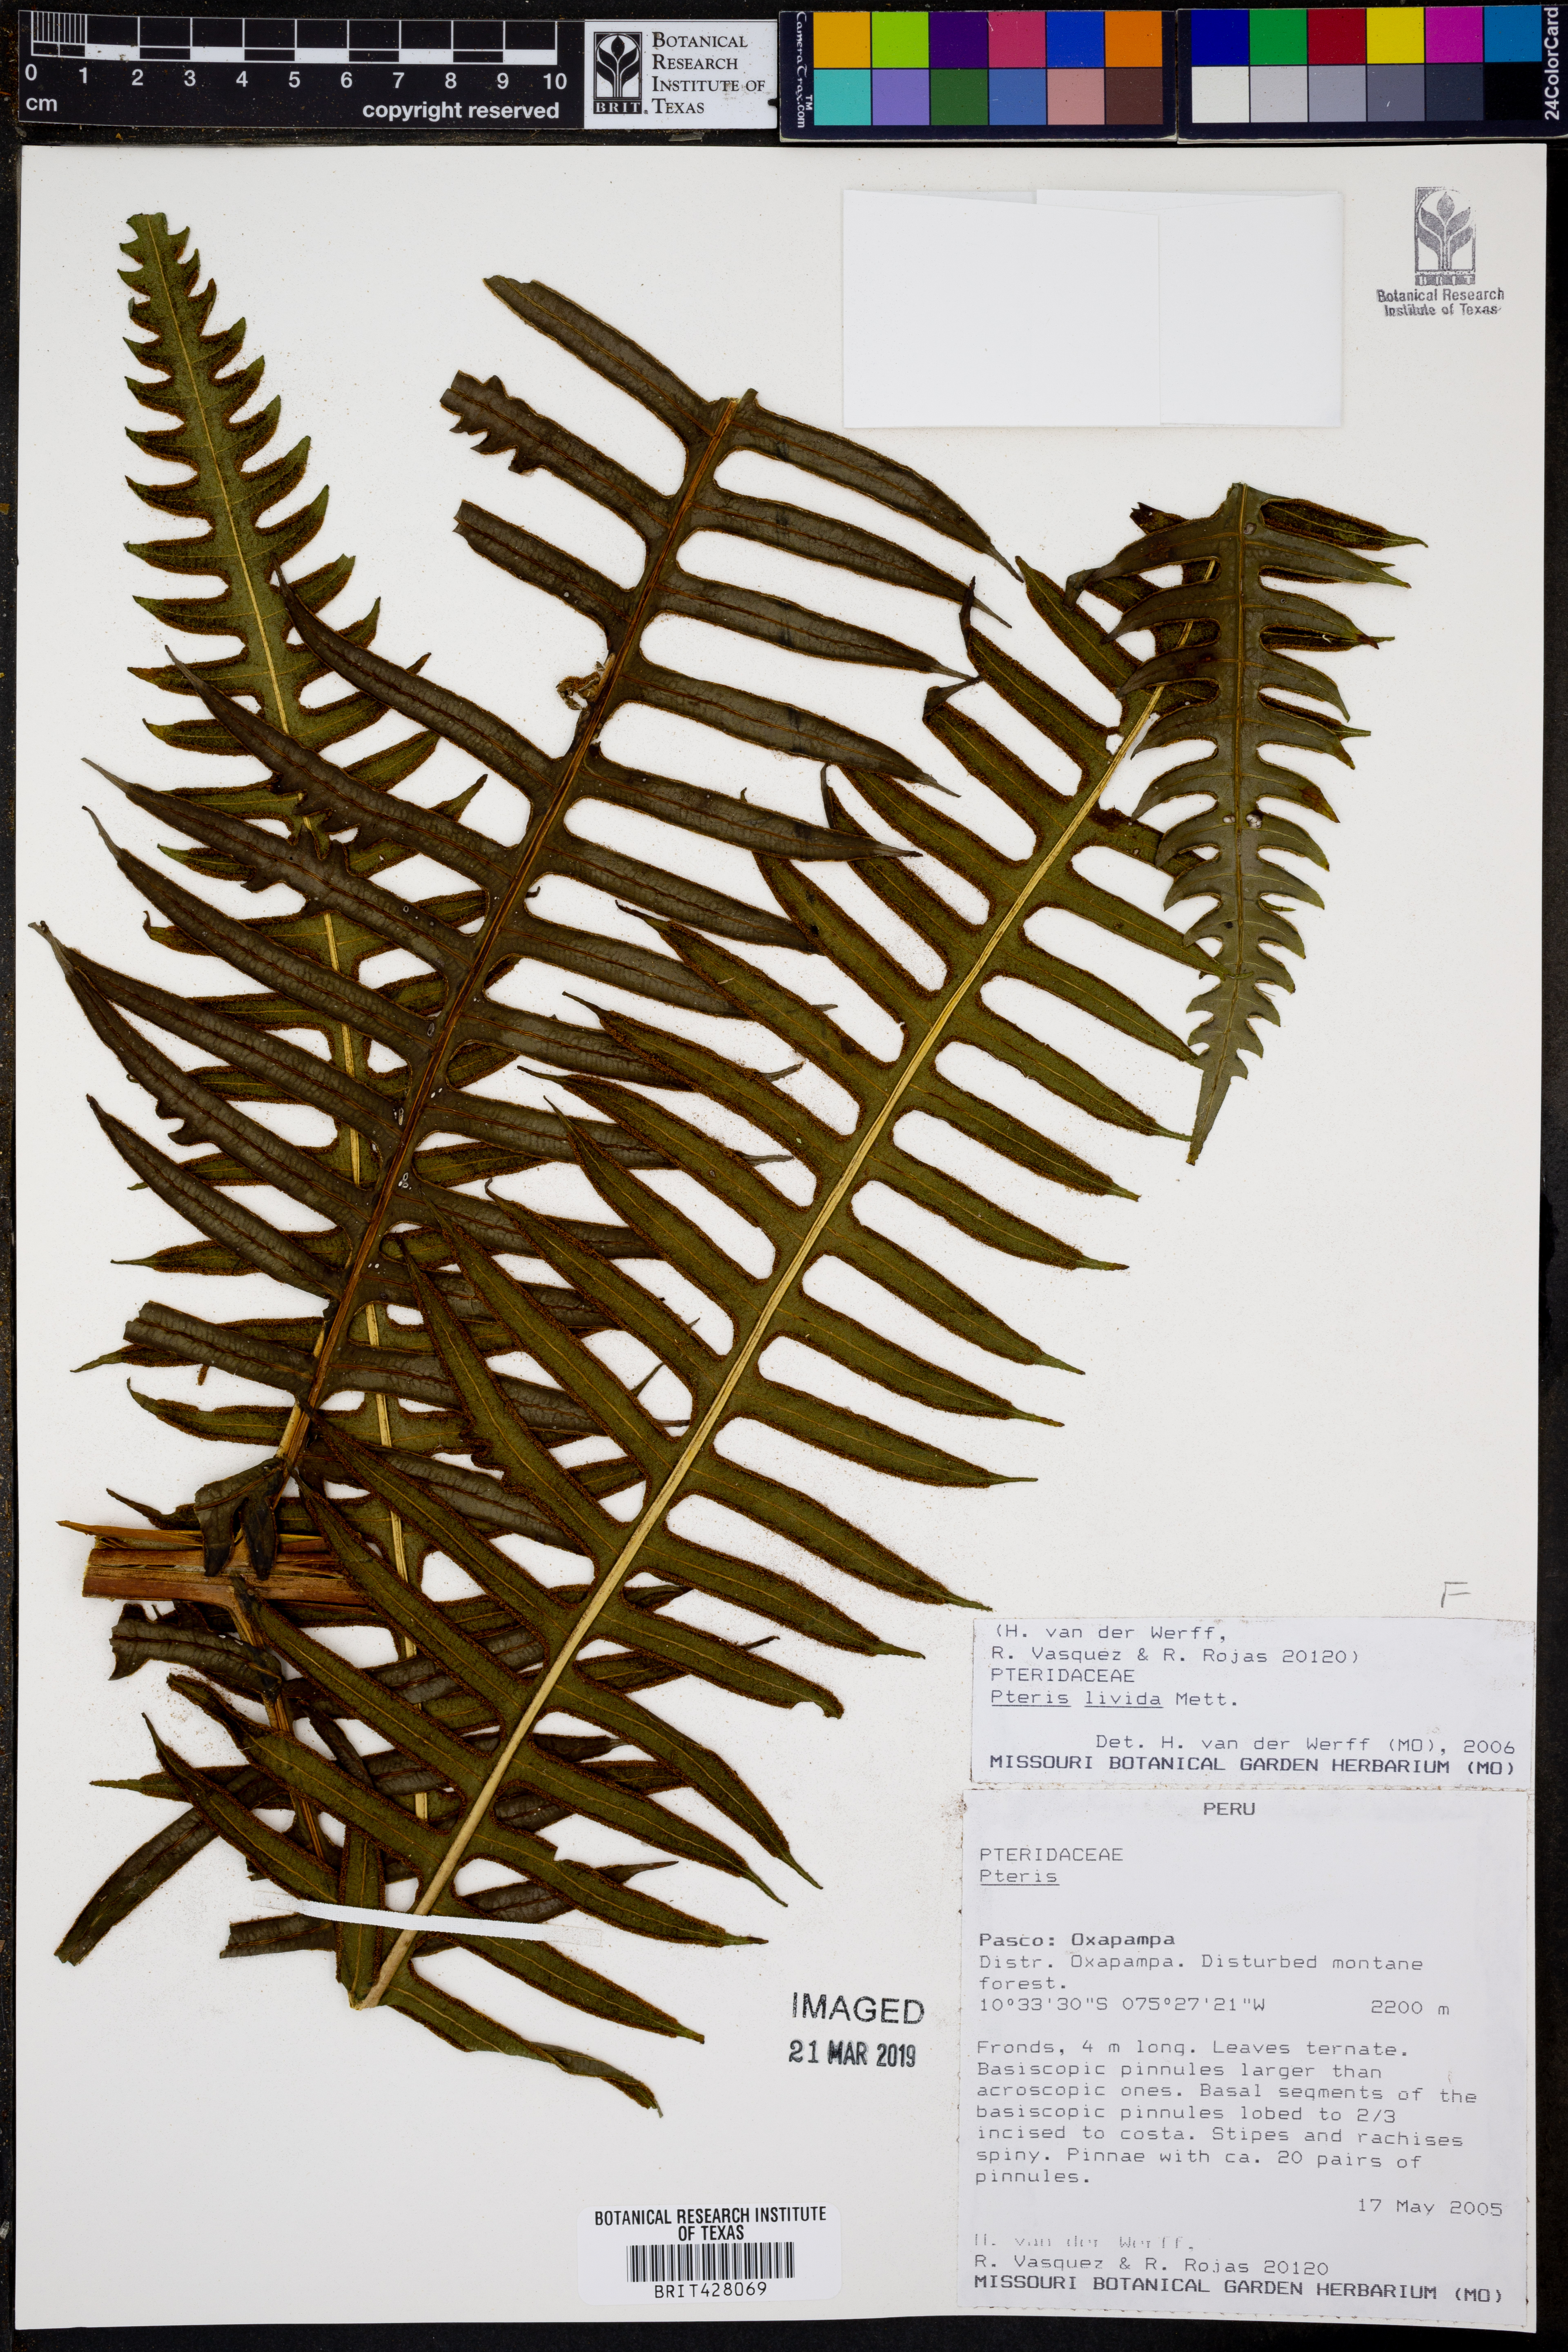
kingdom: Plantae
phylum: Tracheophyta
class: Polypodiopsida
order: Polypodiales
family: Pteridaceae
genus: Pteris
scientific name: Pteris livida
